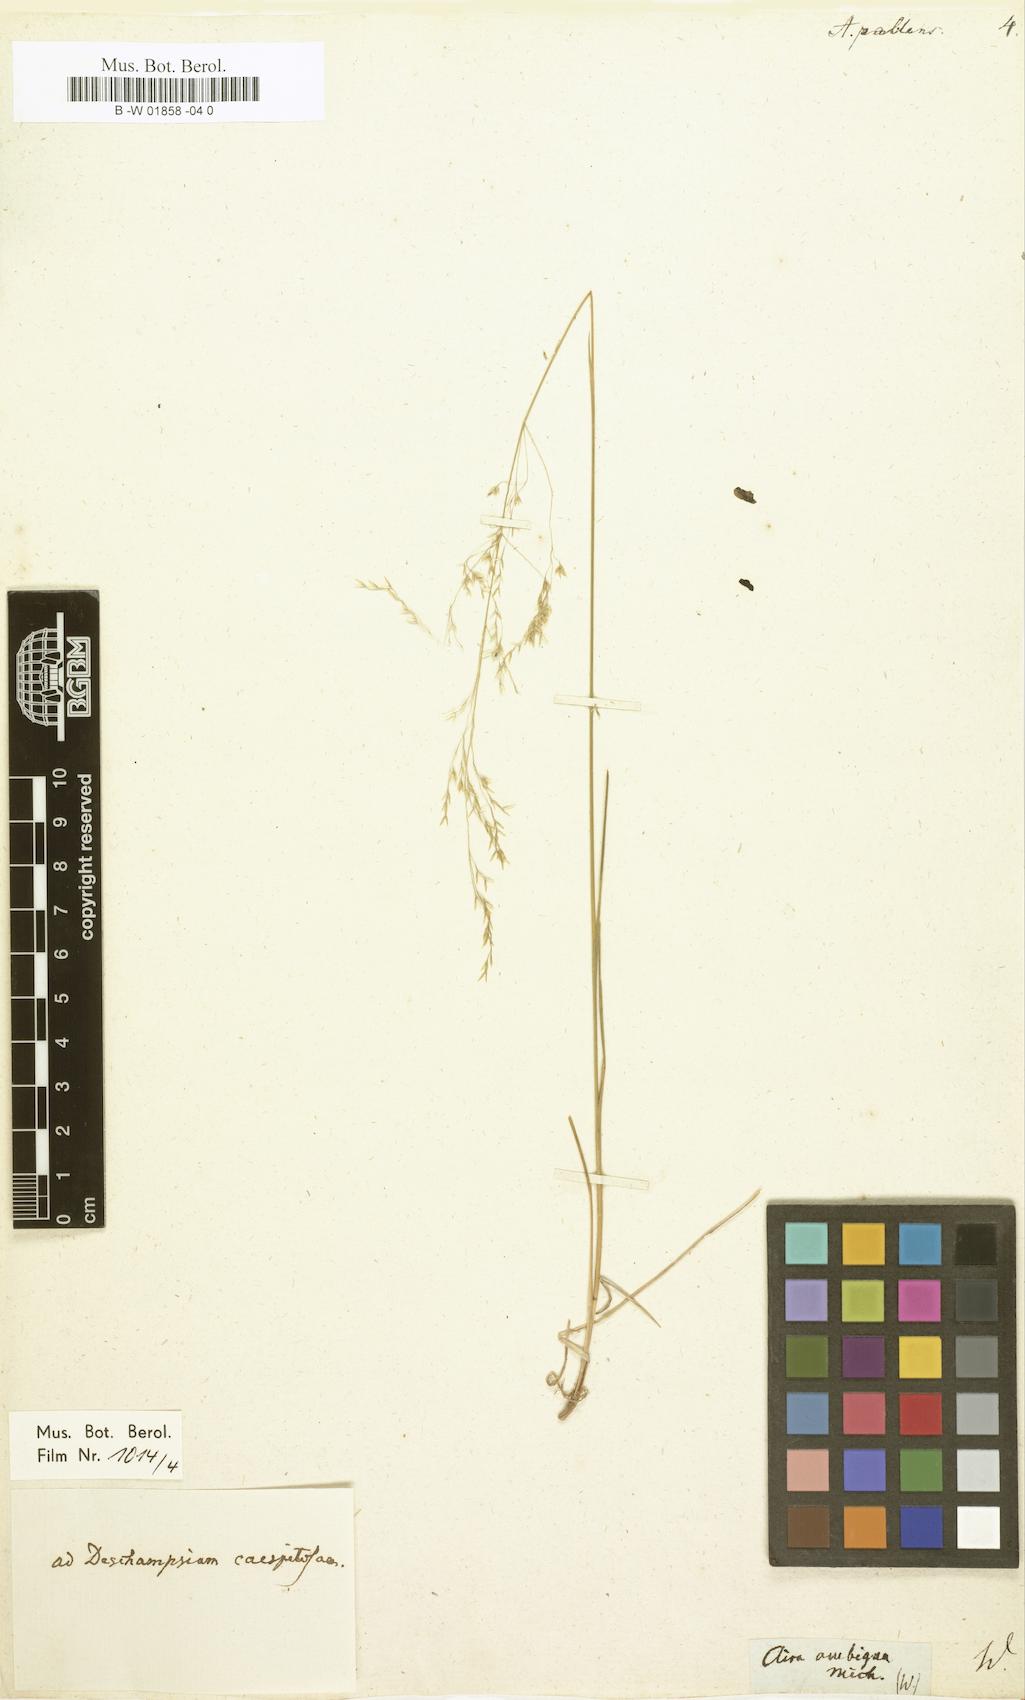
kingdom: Plantae
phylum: Tracheophyta
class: Liliopsida
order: Poales
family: Poaceae
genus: Sphenopholis
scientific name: Sphenopholis pallens
